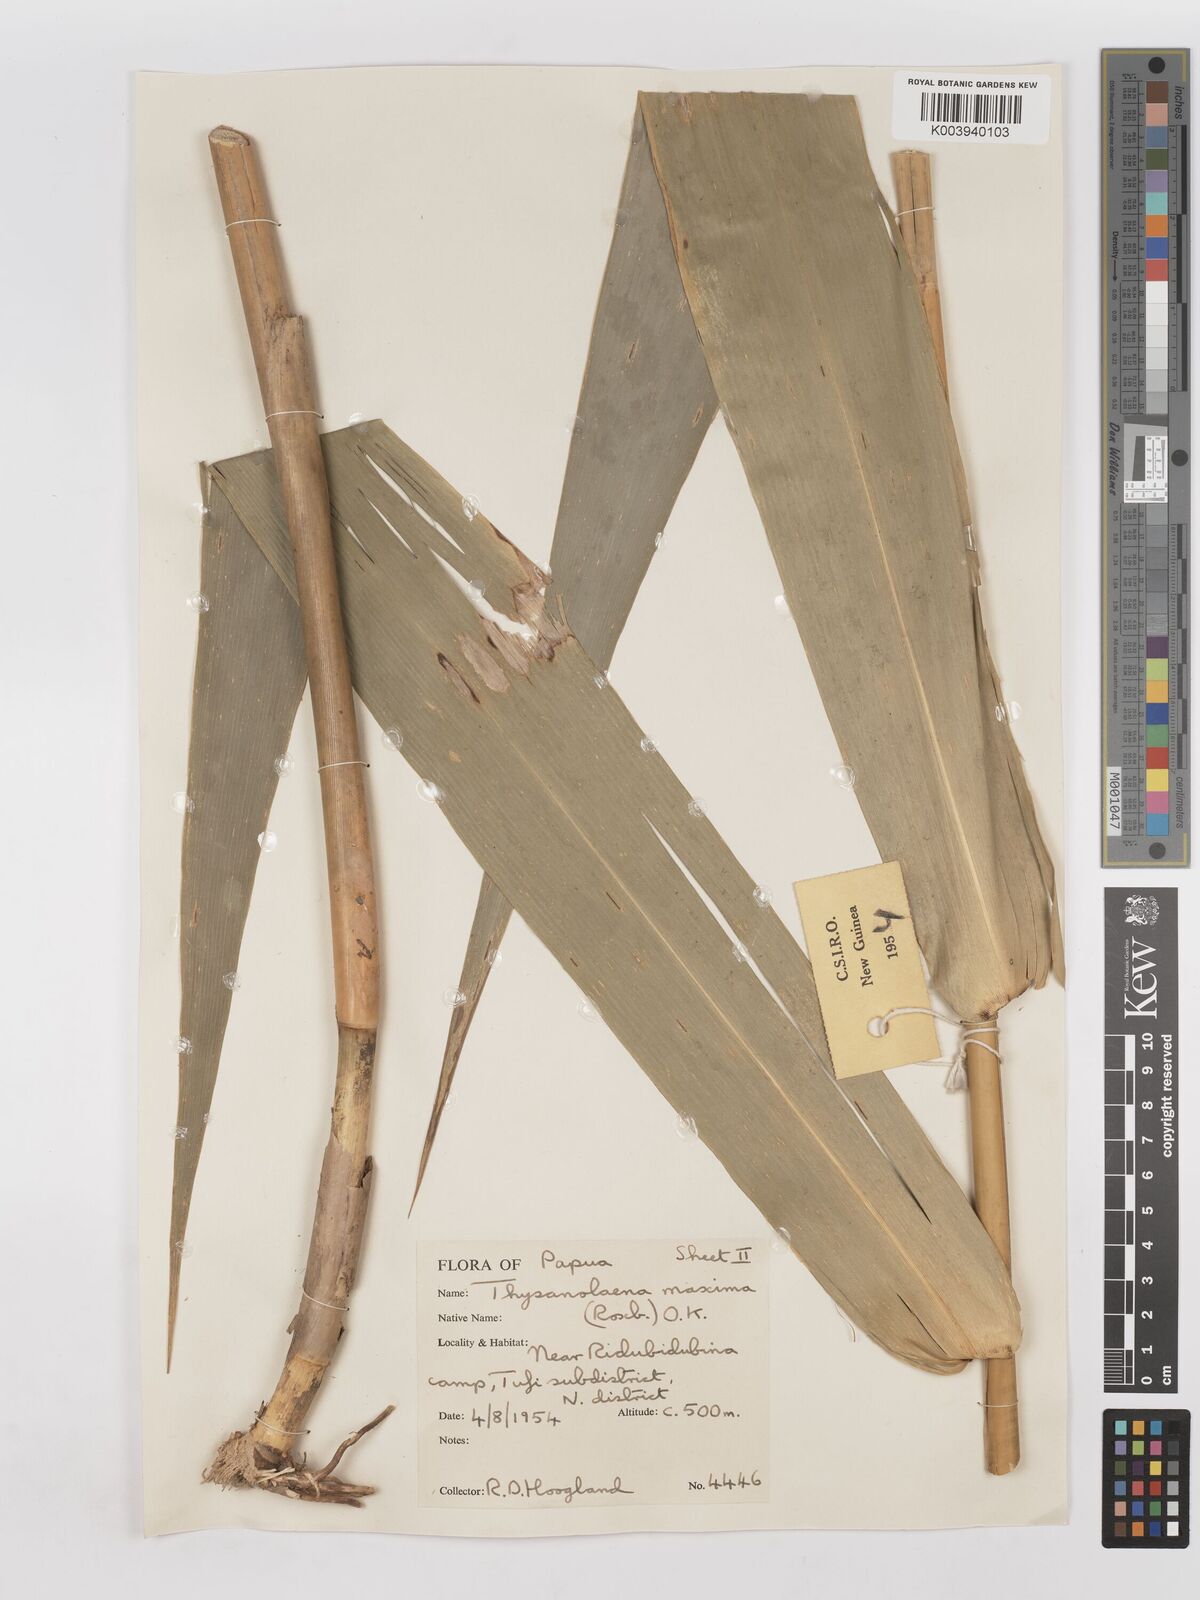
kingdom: Plantae
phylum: Tracheophyta
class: Liliopsida
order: Poales
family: Poaceae
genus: Thysanolaena
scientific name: Thysanolaena latifolia
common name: Tiger grass
